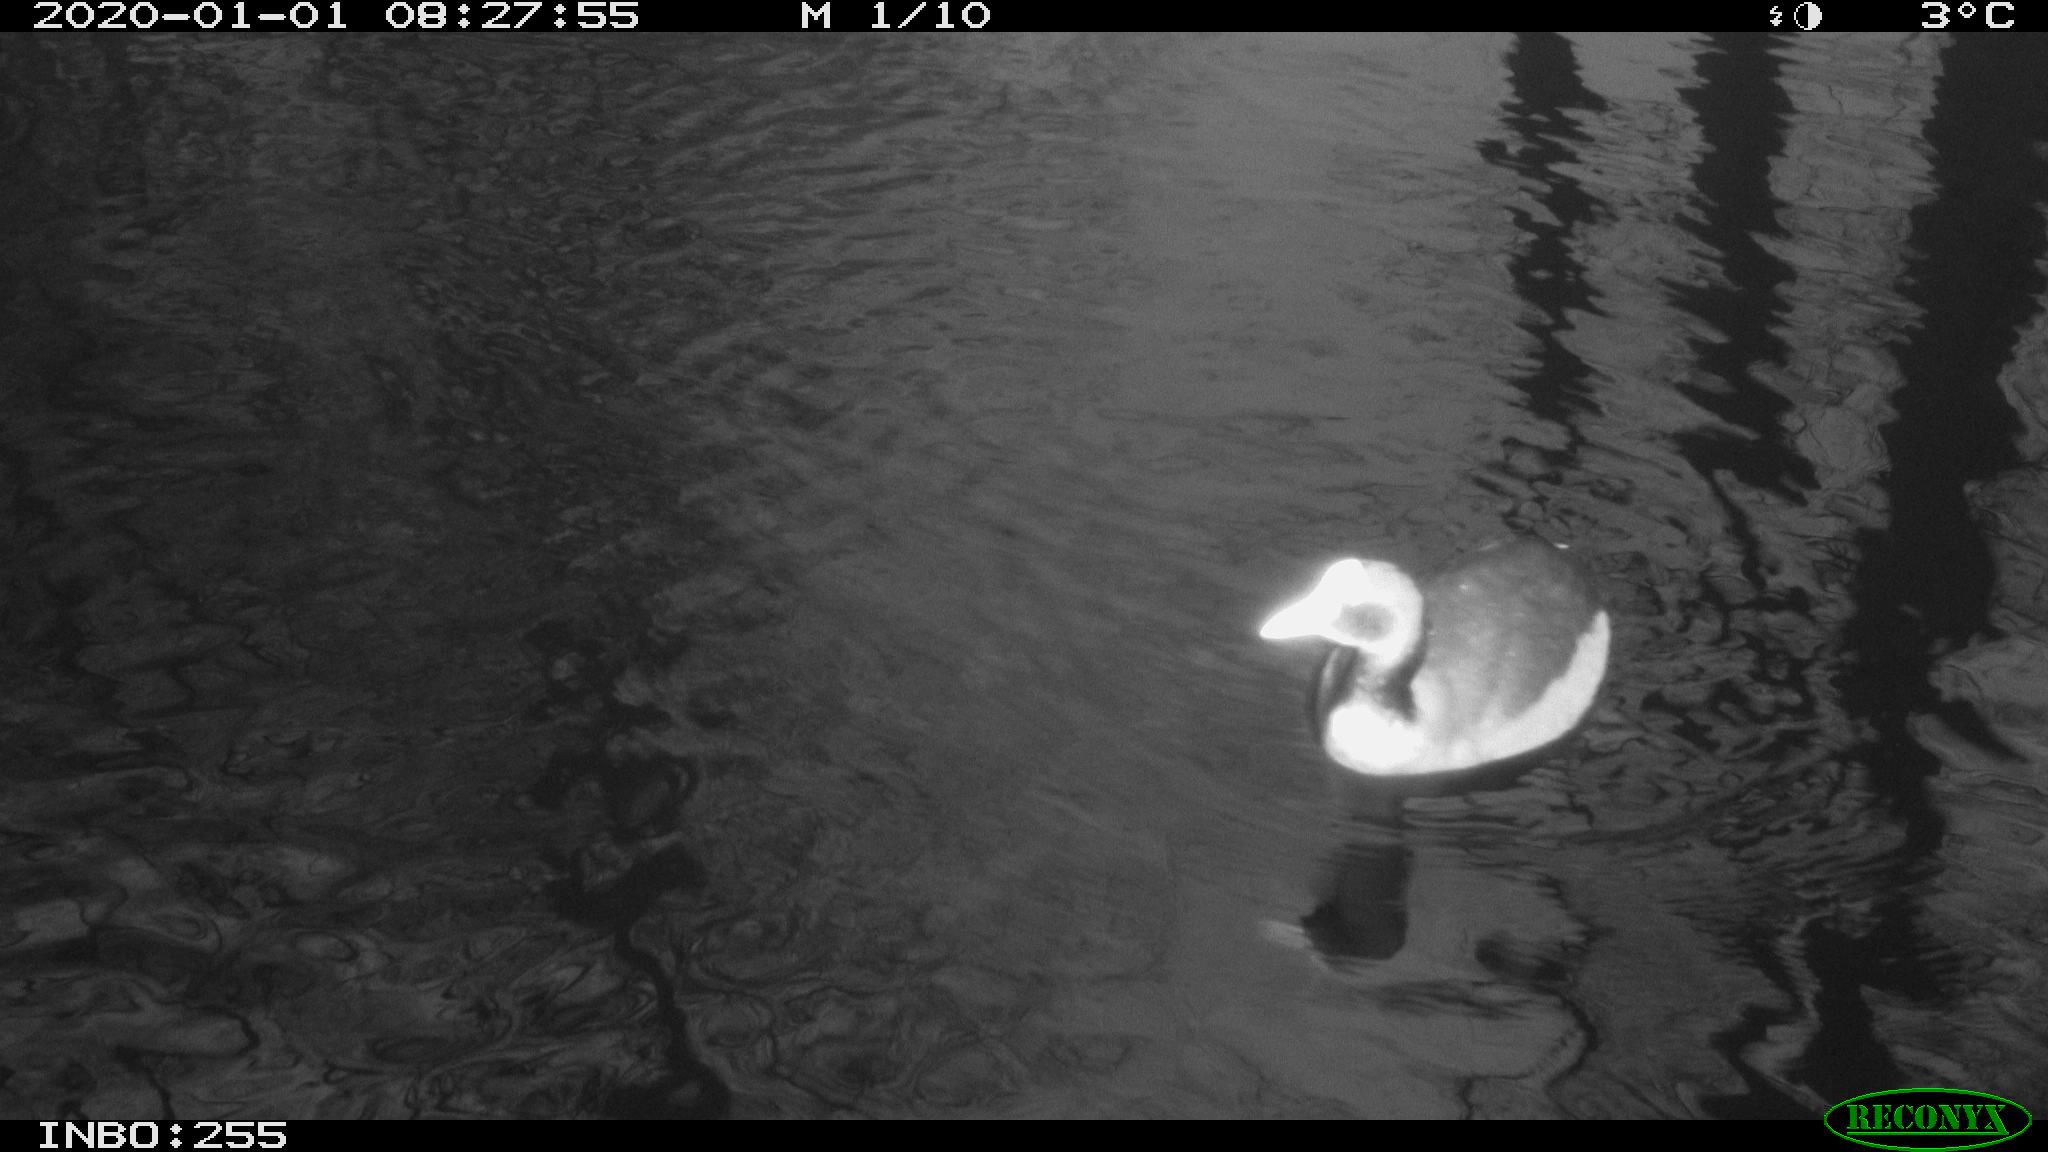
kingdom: Animalia
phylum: Chordata
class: Aves
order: Gruiformes
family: Rallidae
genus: Fulica
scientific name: Fulica atra
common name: Eurasian coot
